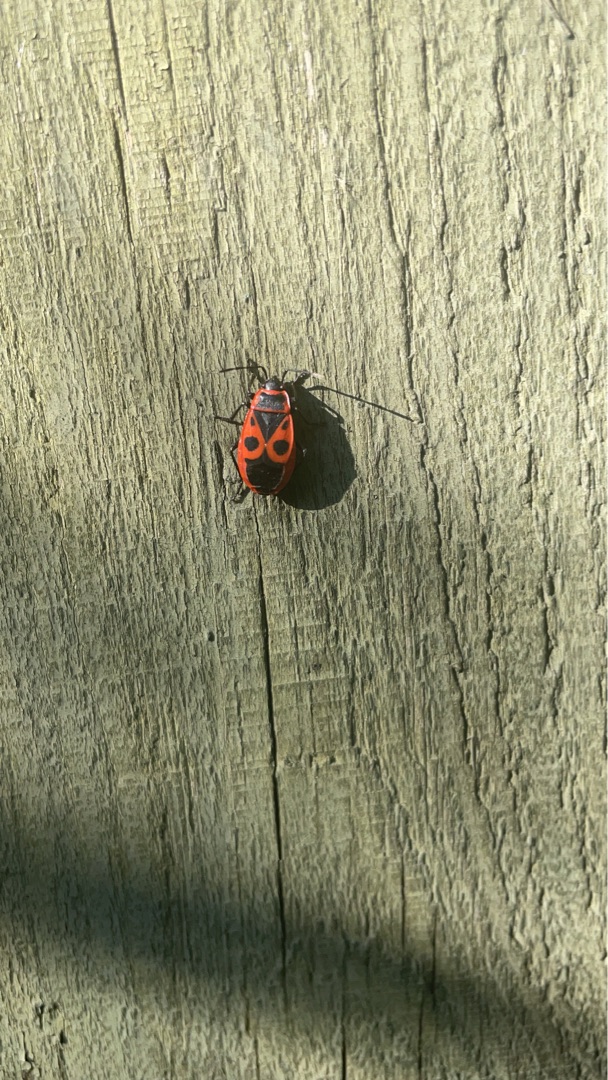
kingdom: Animalia
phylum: Arthropoda
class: Insecta
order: Hemiptera
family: Pyrrhocoridae
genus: Pyrrhocoris
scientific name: Pyrrhocoris apterus
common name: Ildtæge
